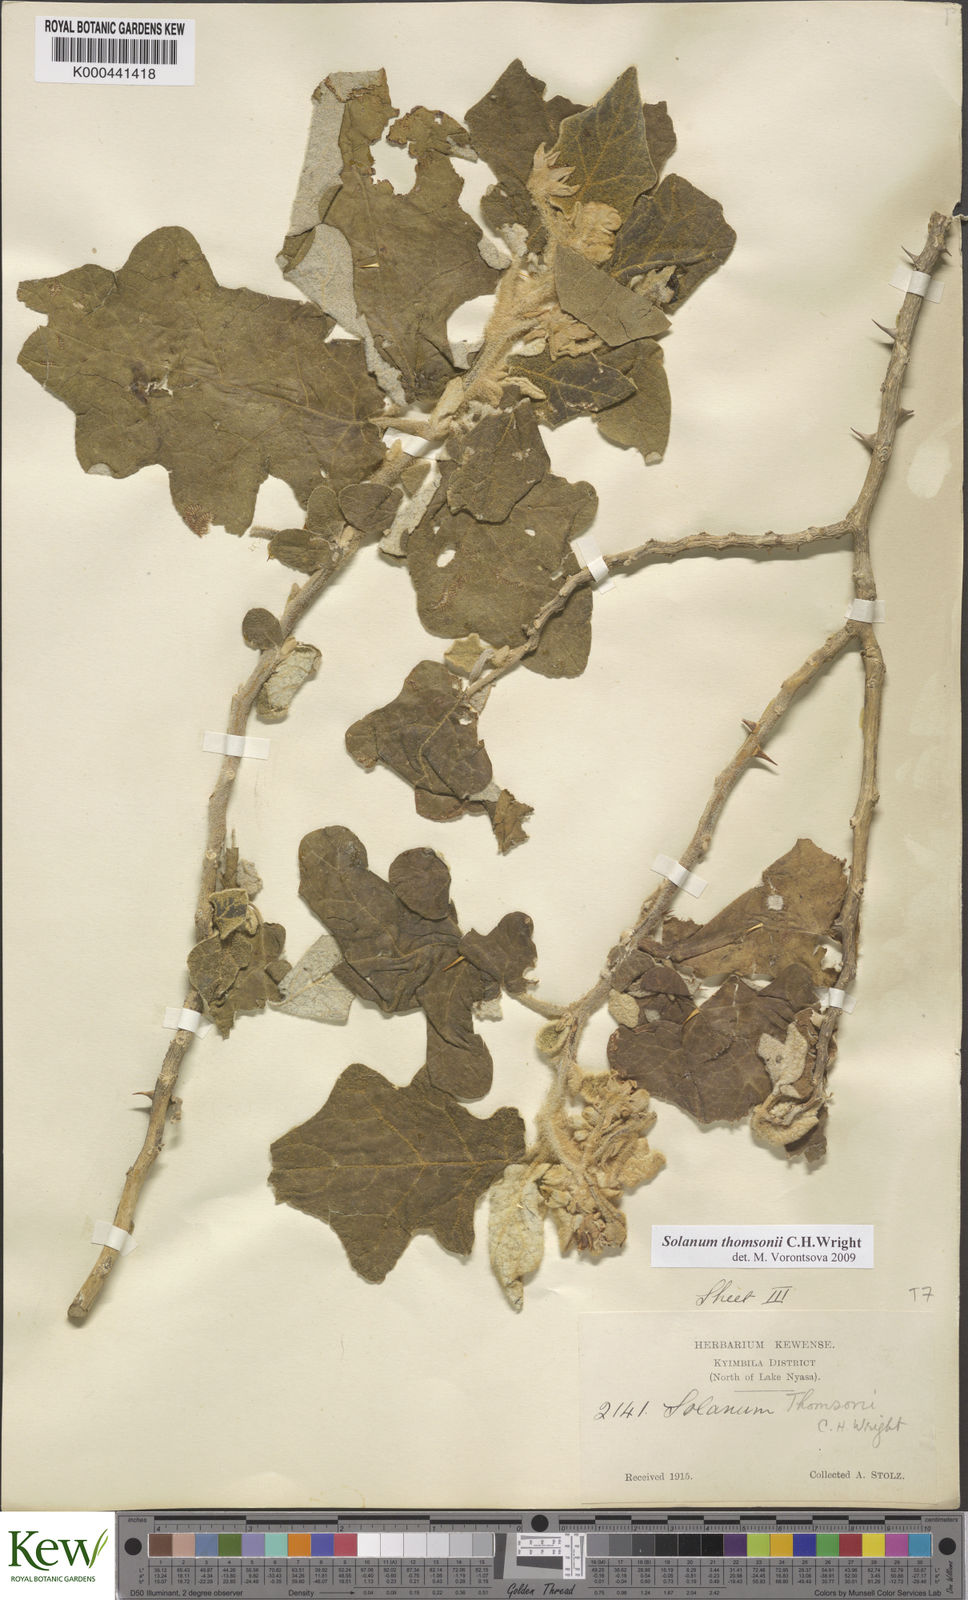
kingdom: Plantae
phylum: Tracheophyta
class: Magnoliopsida
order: Solanales
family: Solanaceae
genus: Solanum
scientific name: Solanum aculeastrum
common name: Goat bitter-apple
